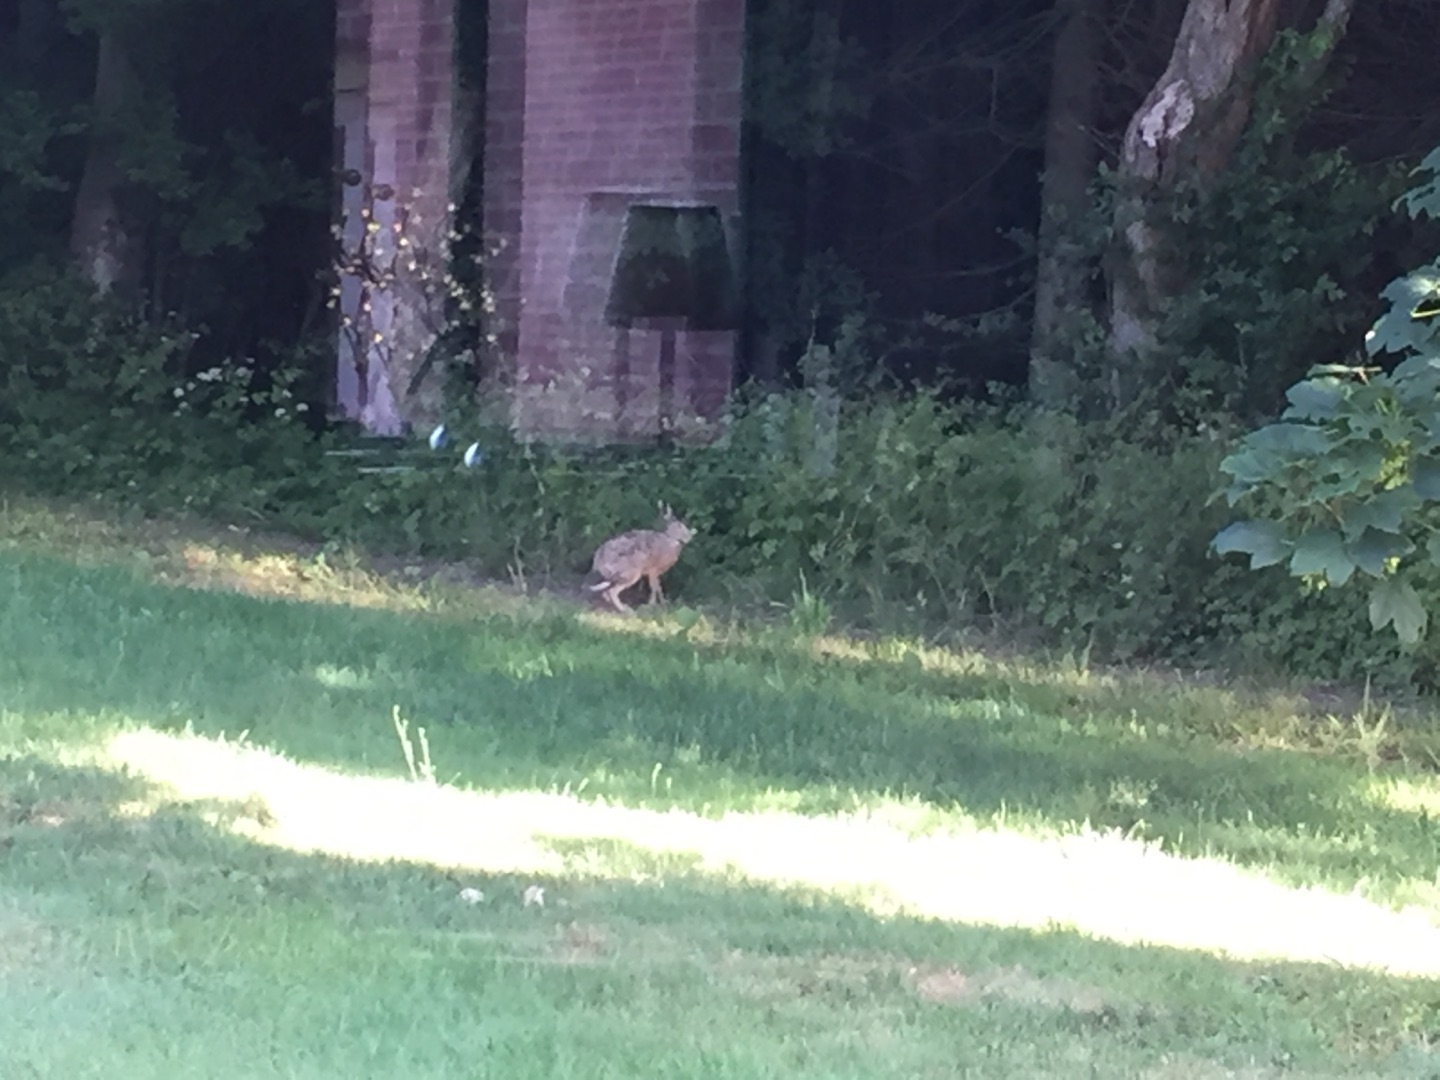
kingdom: Animalia
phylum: Chordata
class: Mammalia
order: Lagomorpha
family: Leporidae
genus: Lepus
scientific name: Lepus europaeus
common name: Hare
